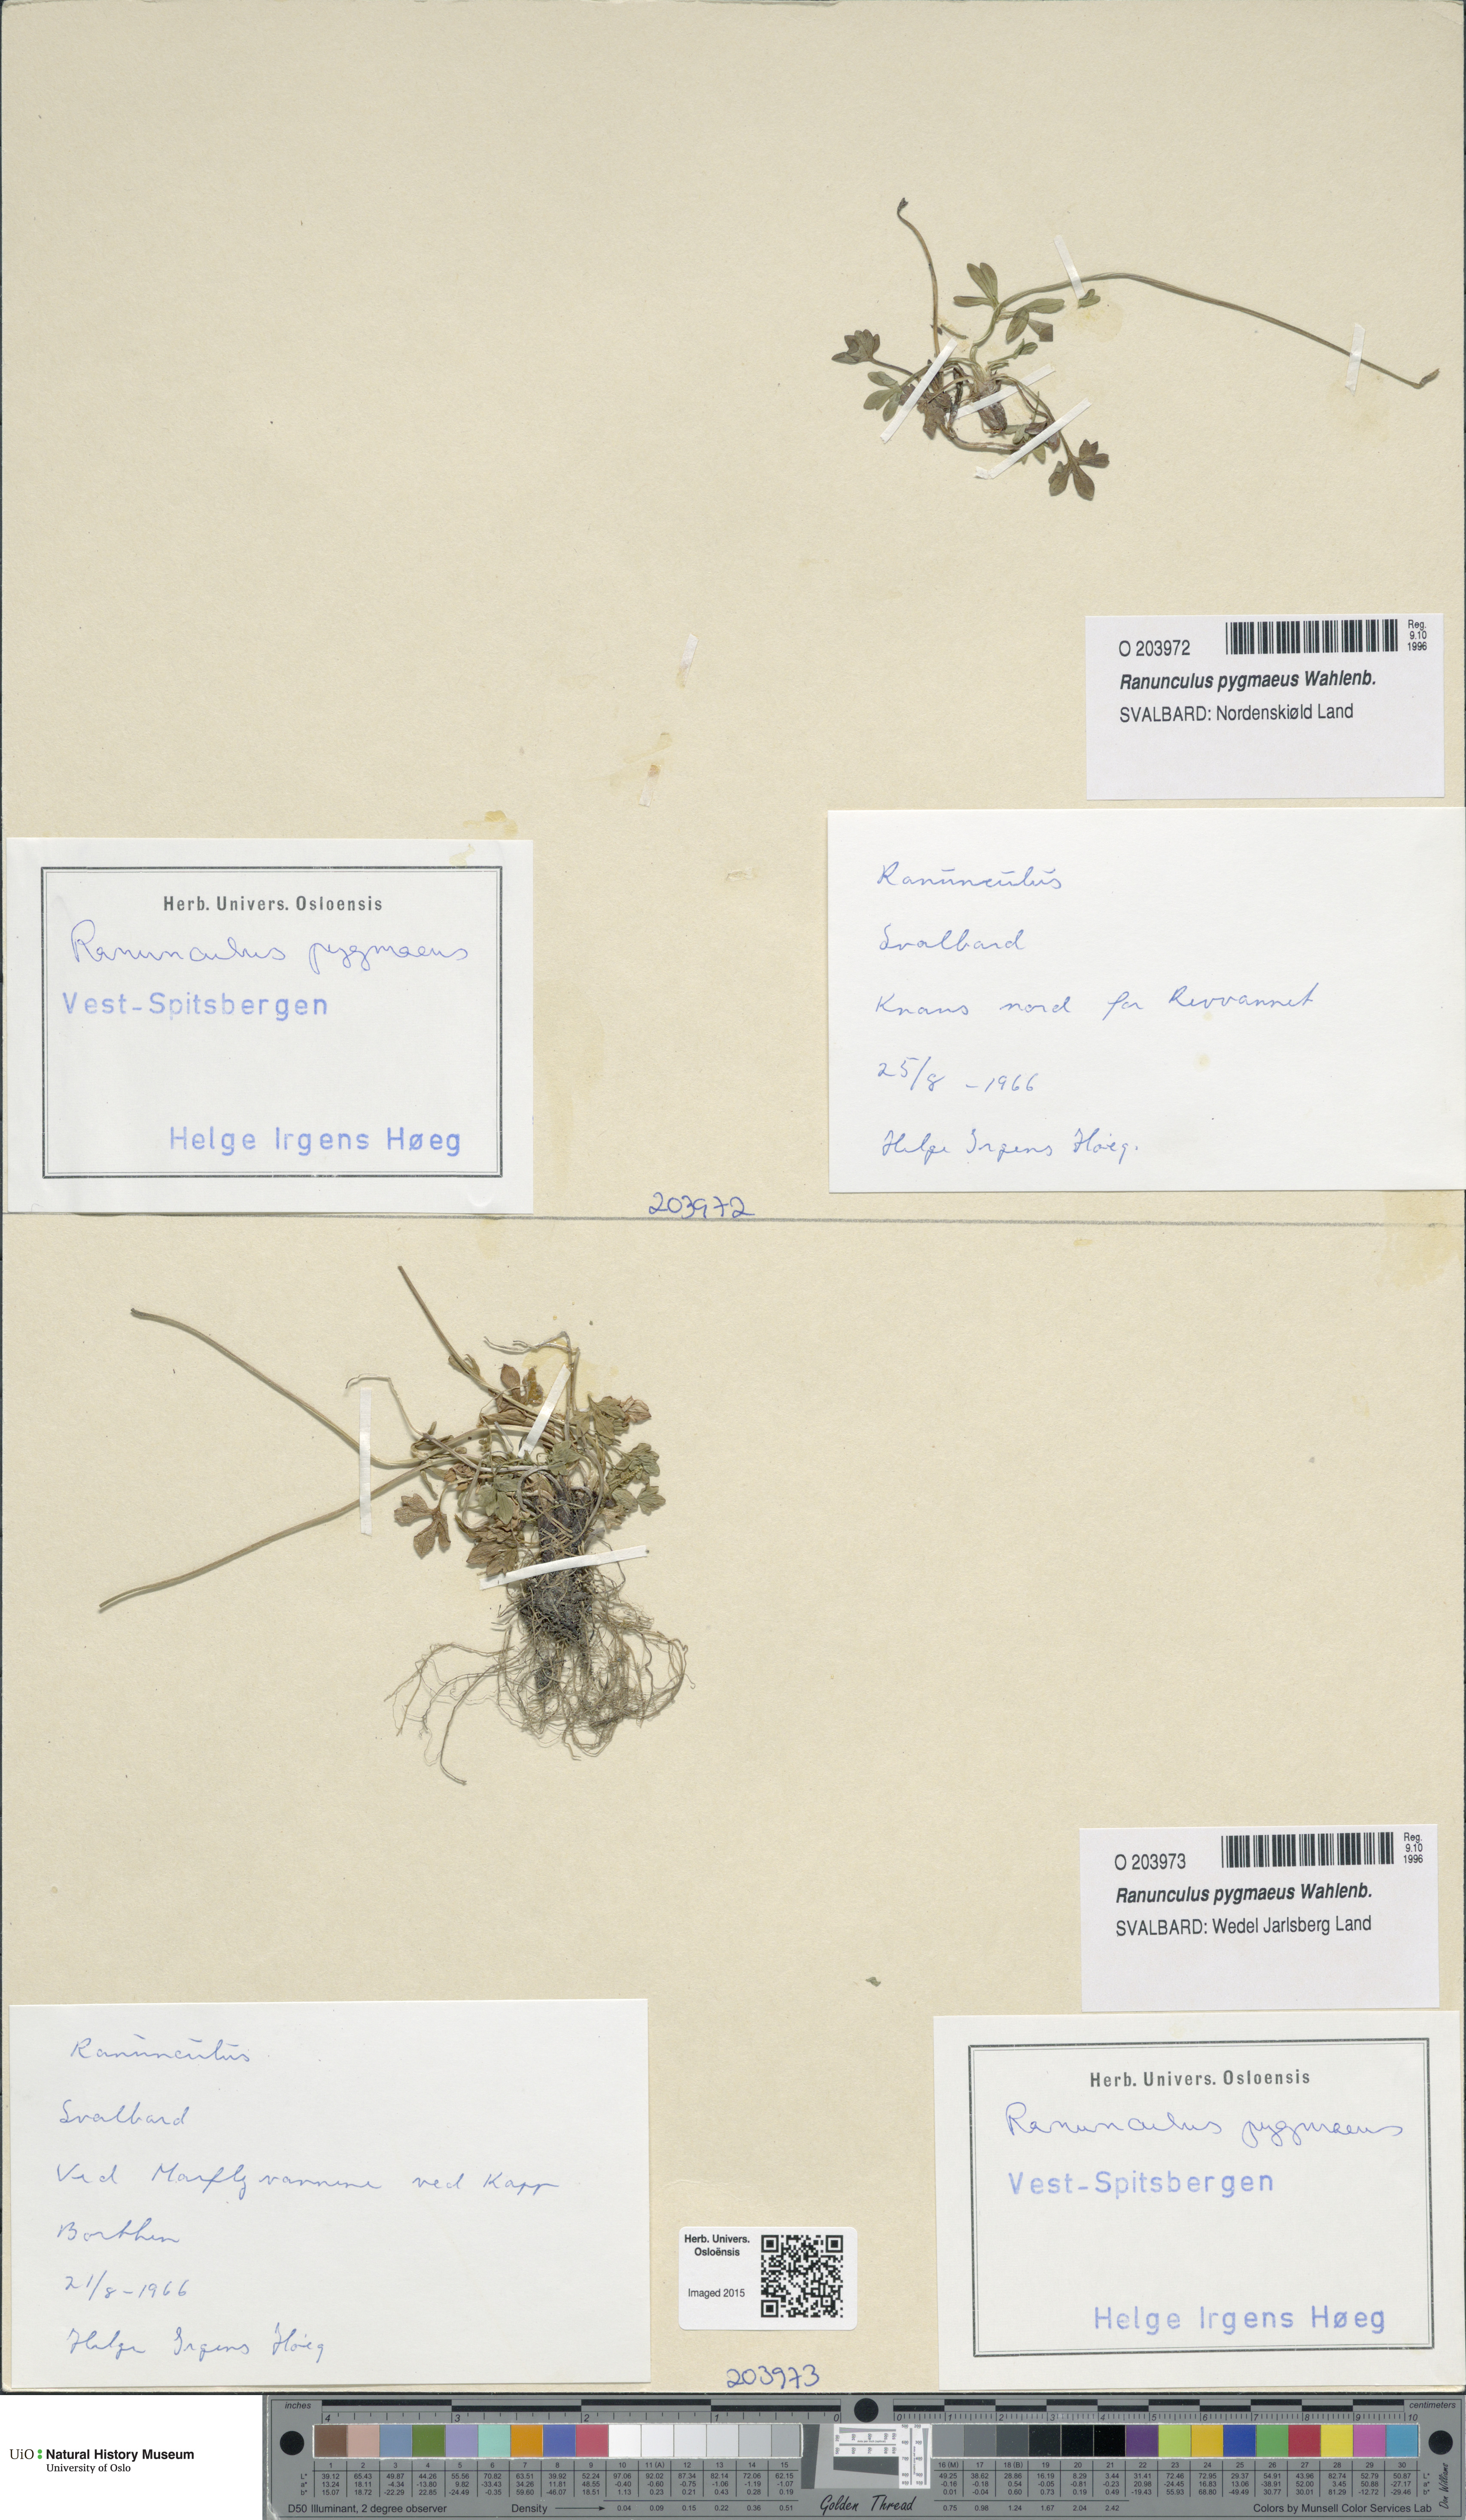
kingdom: Plantae
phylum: Tracheophyta
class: Magnoliopsida
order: Ranunculales
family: Ranunculaceae
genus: Ranunculus
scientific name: Ranunculus pygmaeus
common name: Dwarf buttercup
